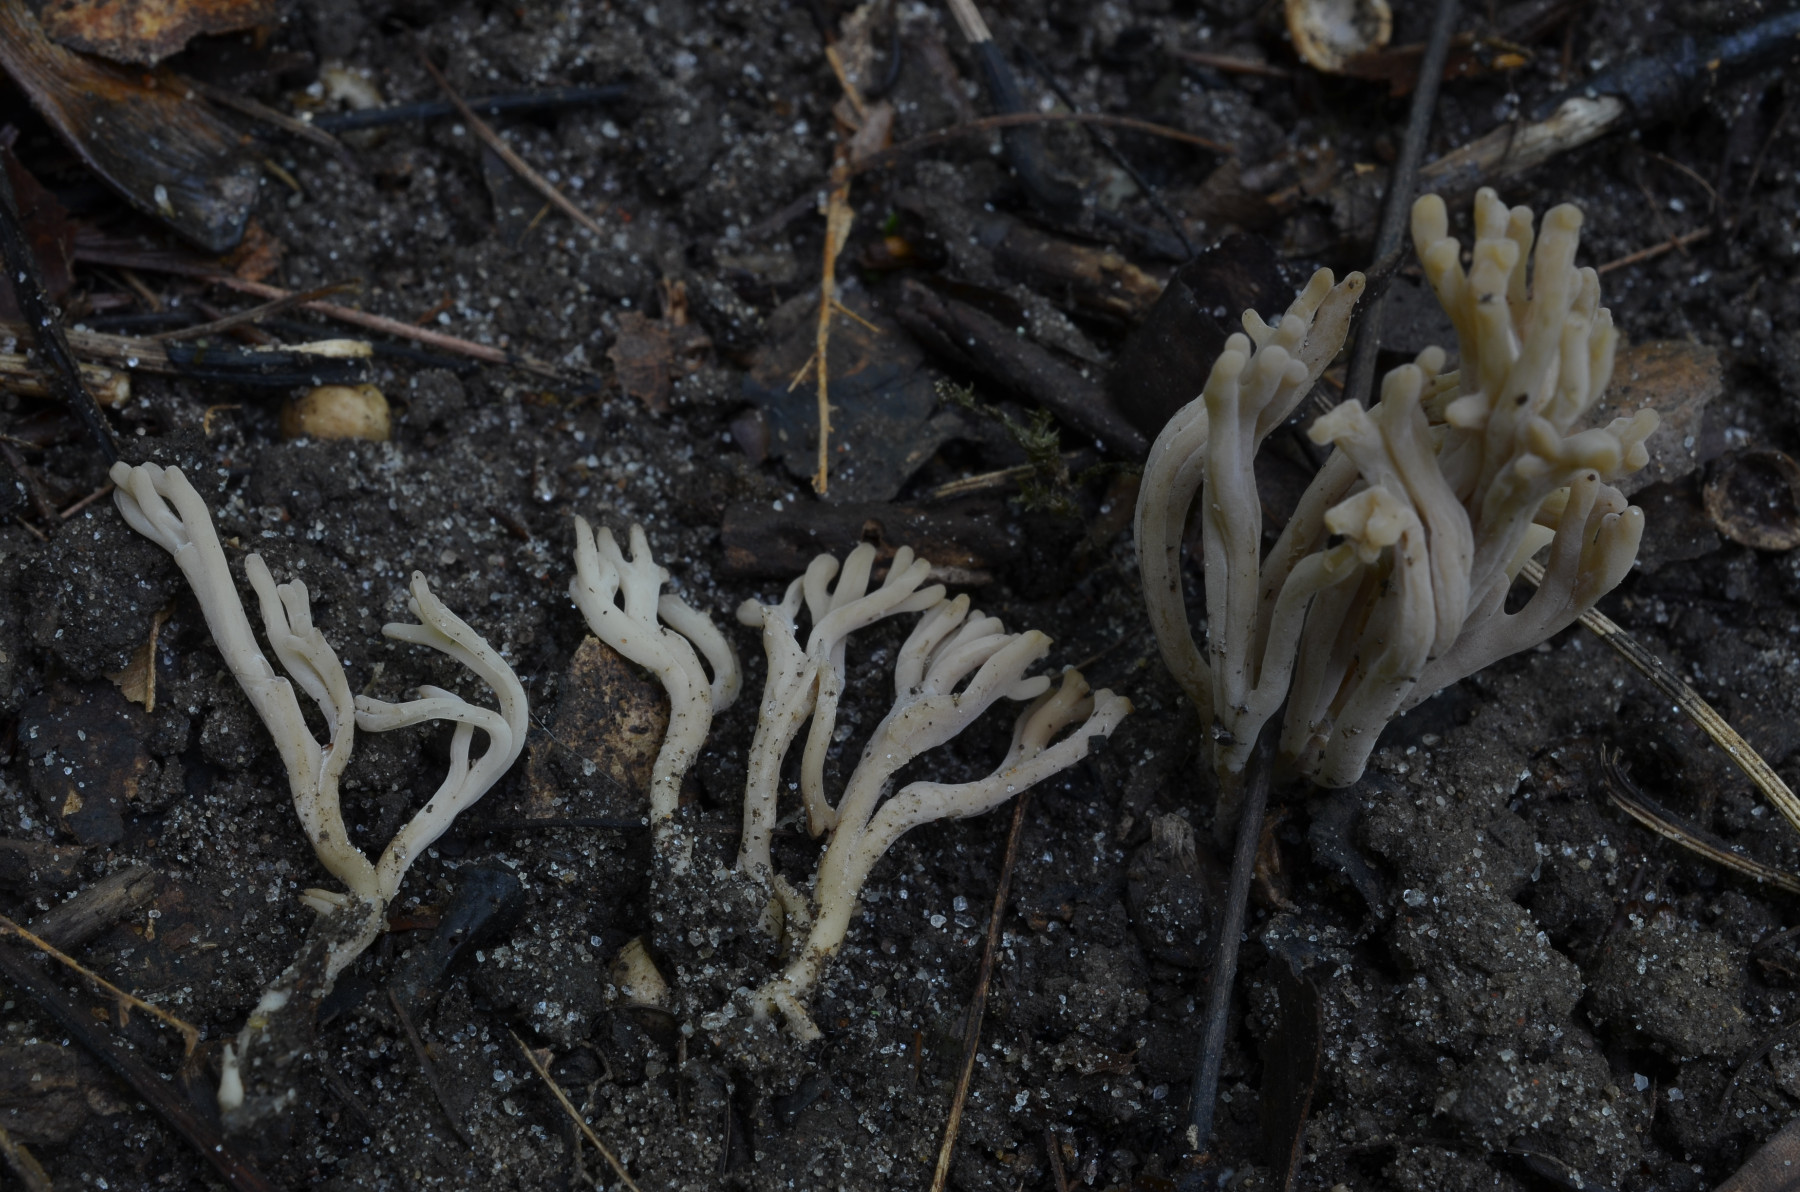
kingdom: Fungi
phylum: Basidiomycota
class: Agaricomycetes
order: Agaricales
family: Clavariaceae
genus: Clavulinopsis
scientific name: Clavulinopsis umbrinella
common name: gulgrå køllesvamp
